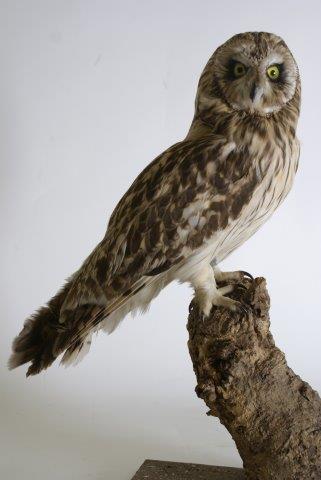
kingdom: Animalia
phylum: Chordata
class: Aves
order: Strigiformes
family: Strigidae
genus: Asio
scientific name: Asio flammeus
